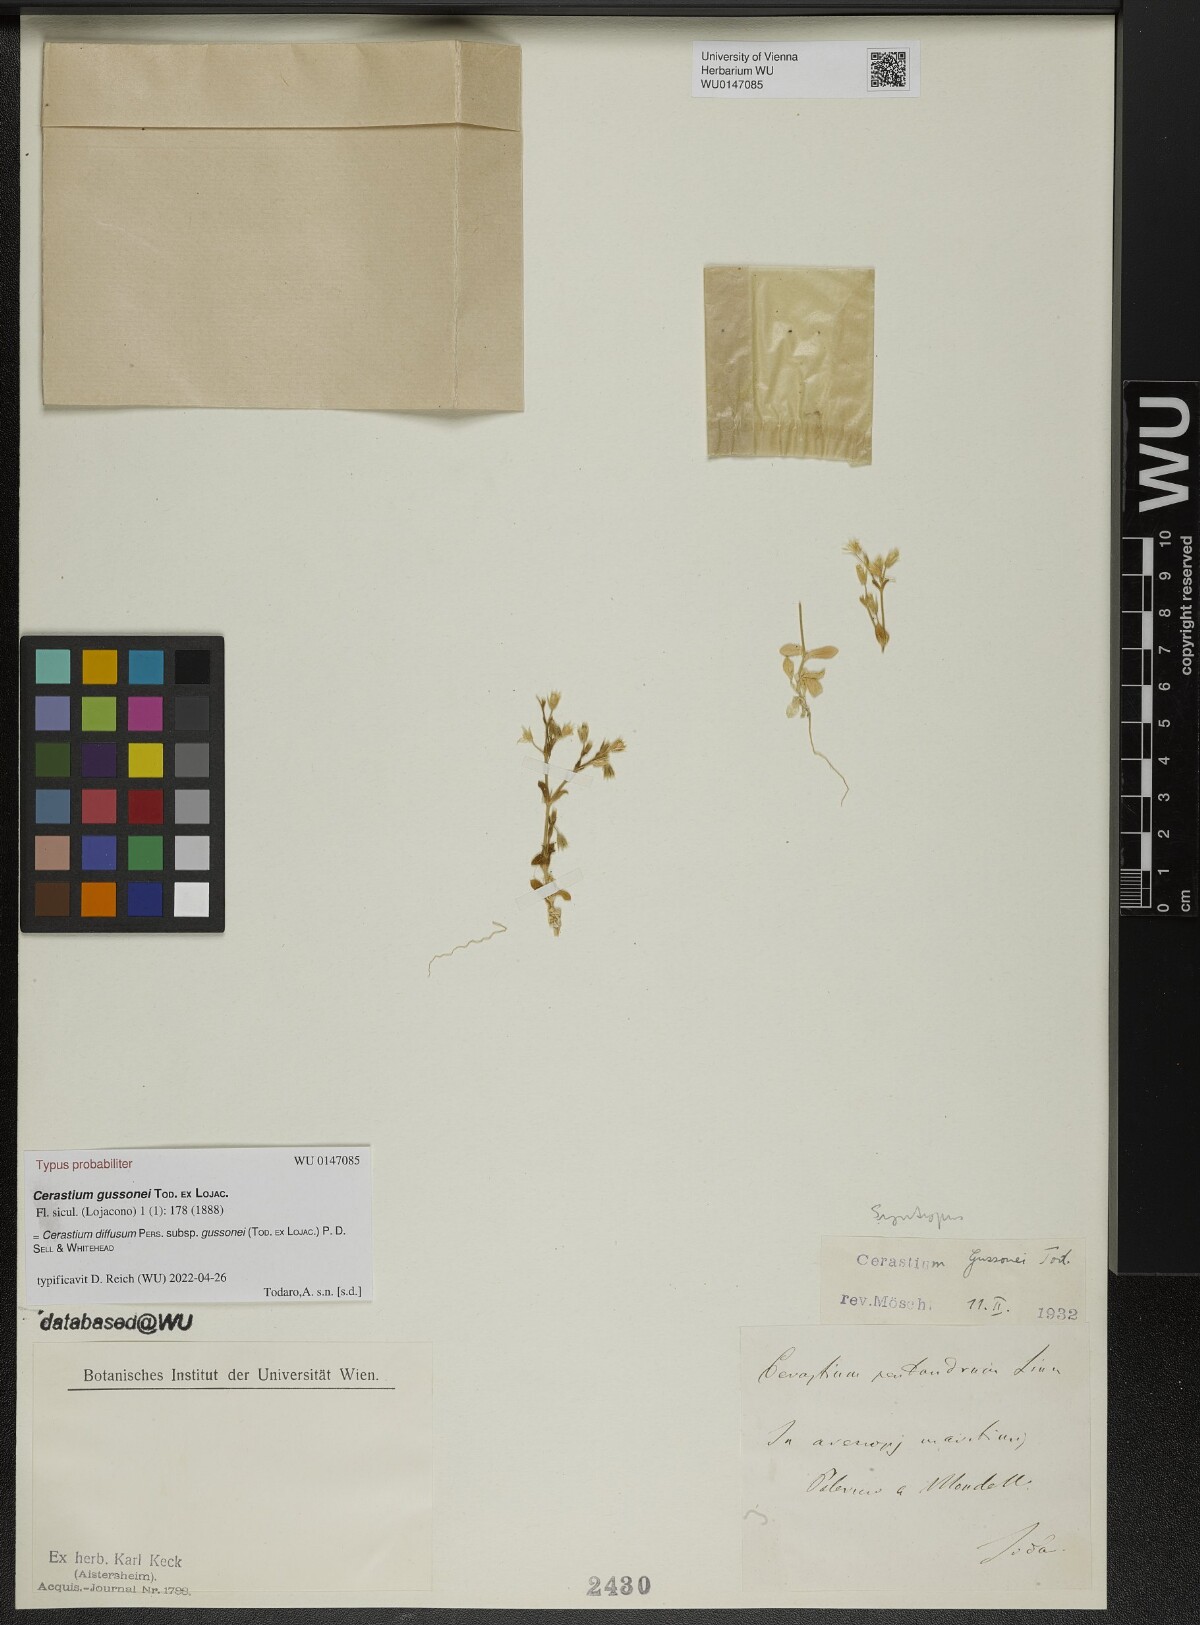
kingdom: Plantae
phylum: Tracheophyta
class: Magnoliopsida
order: Caryophyllales
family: Caryophyllaceae
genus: Cerastium
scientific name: Cerastium diffusum
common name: Fourstamen chickweed
